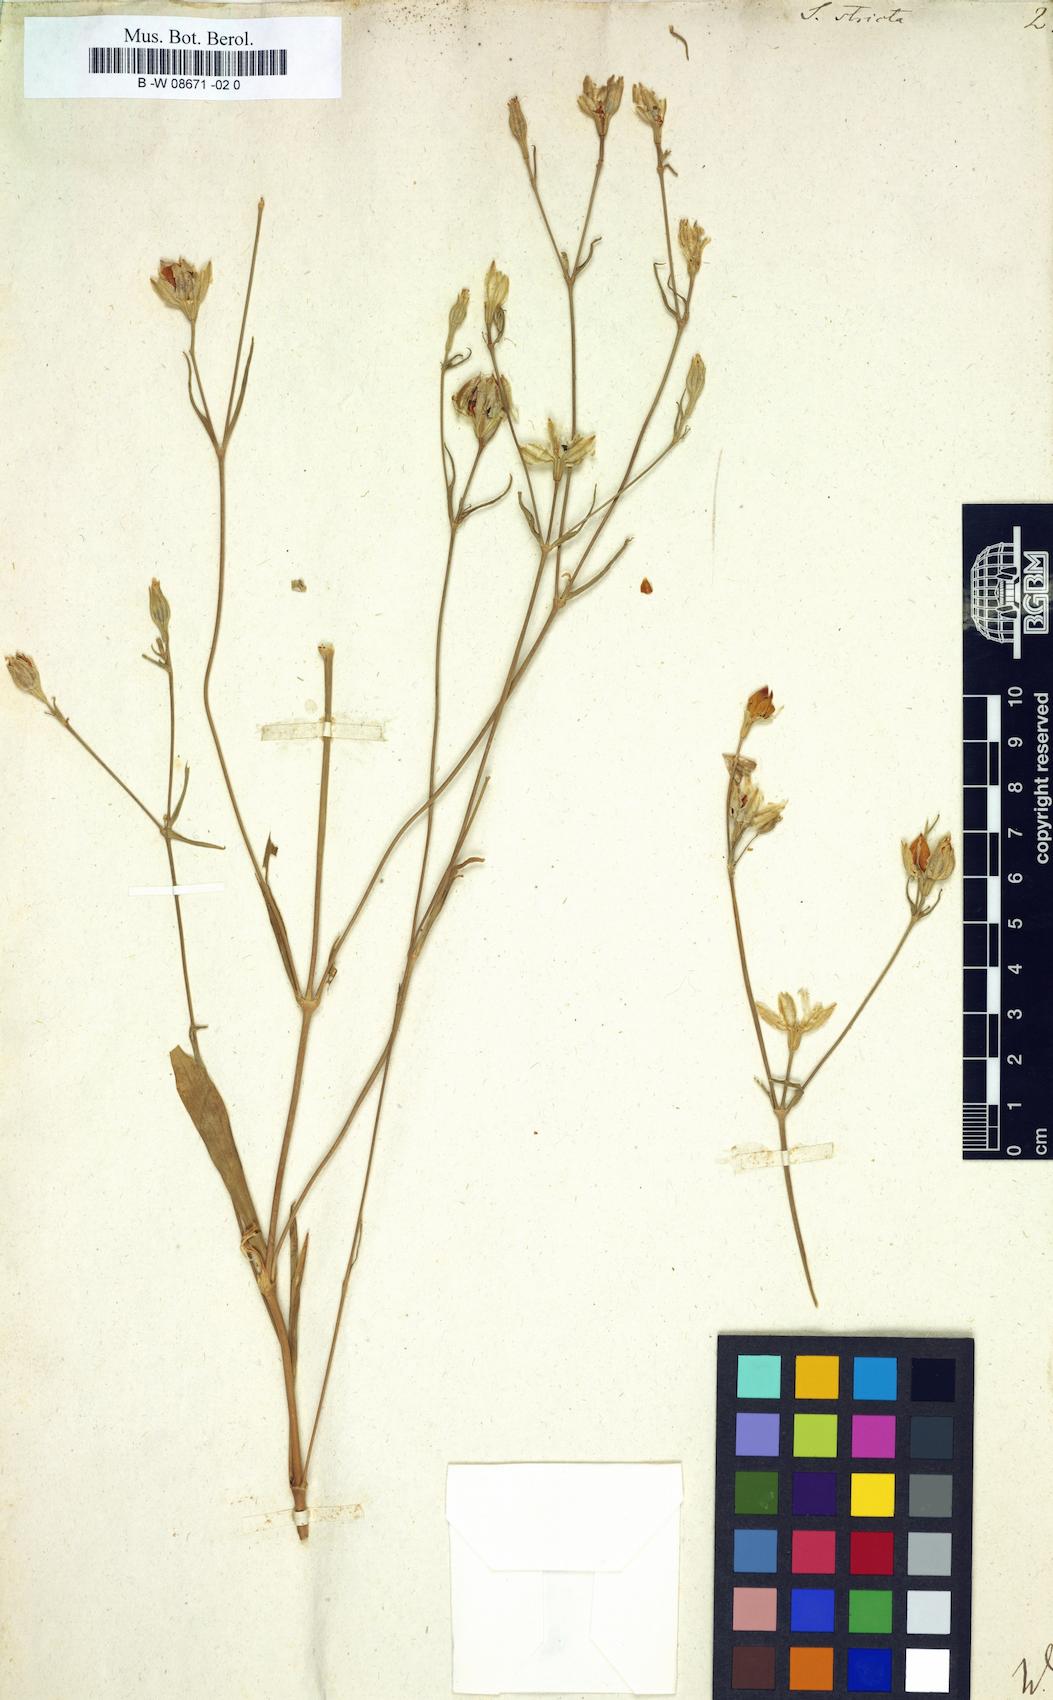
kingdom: Plantae
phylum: Tracheophyta
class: Magnoliopsida
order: Caryophyllales
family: Caryophyllaceae
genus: Silene
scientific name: Silene stricta
